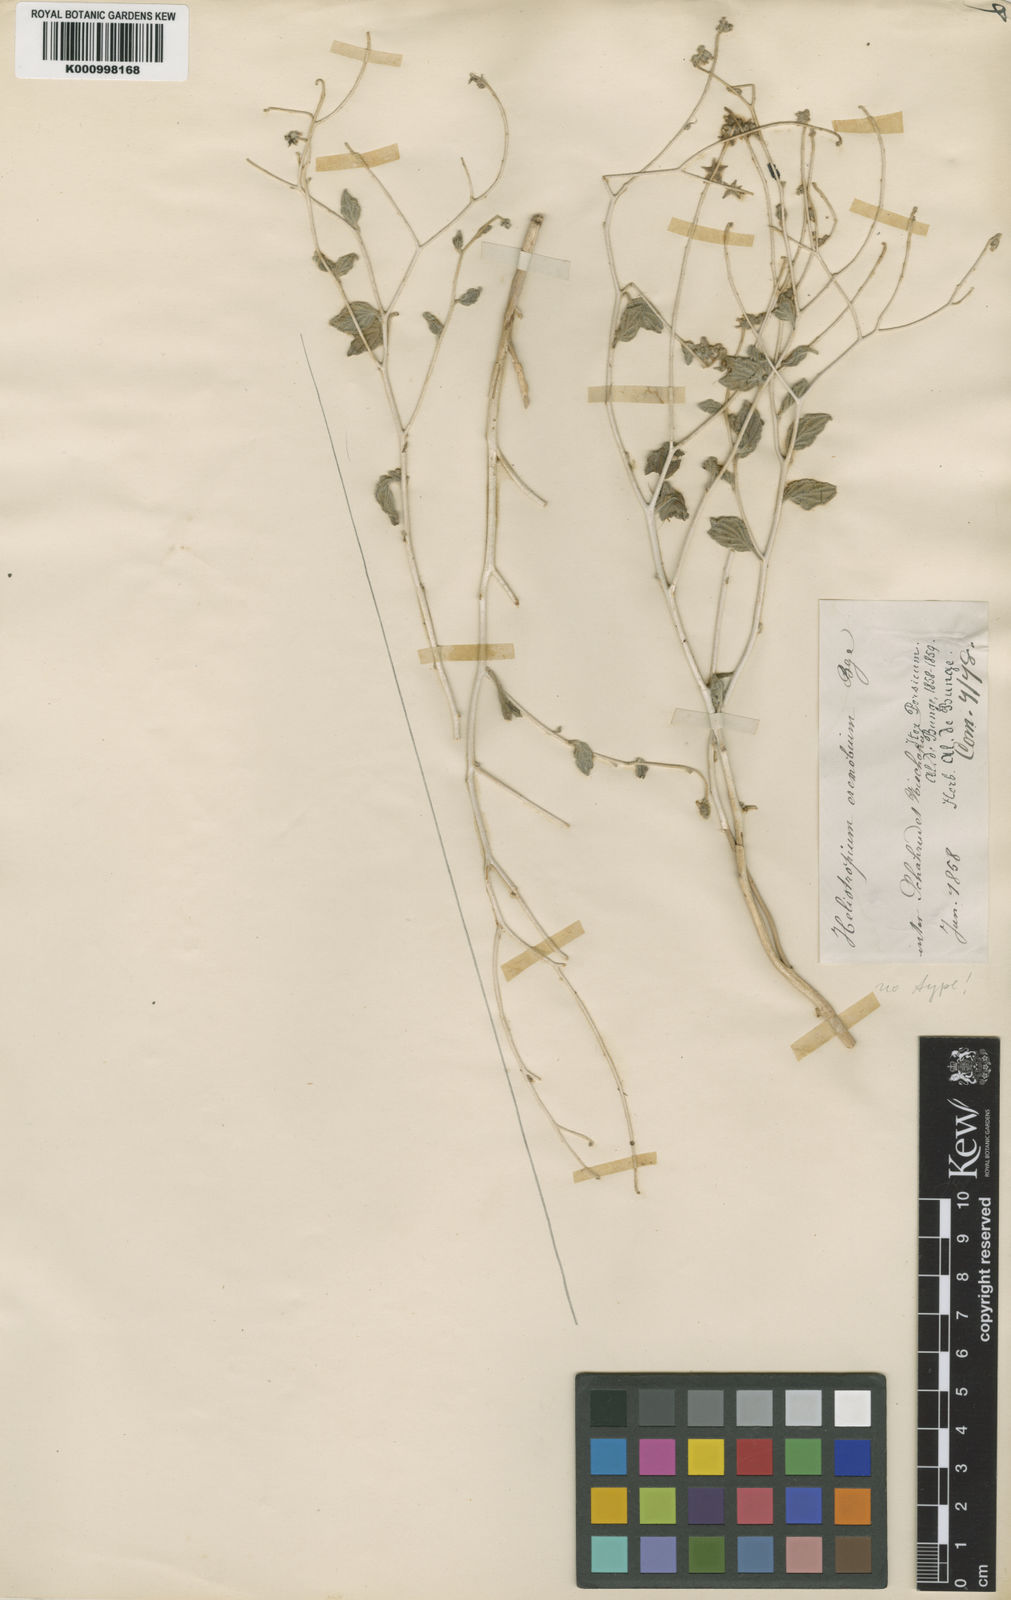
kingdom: Plantae
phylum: Tracheophyta
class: Magnoliopsida
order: Boraginales
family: Heliotropiaceae
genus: Heliotropium
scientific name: Heliotropium eremobium
